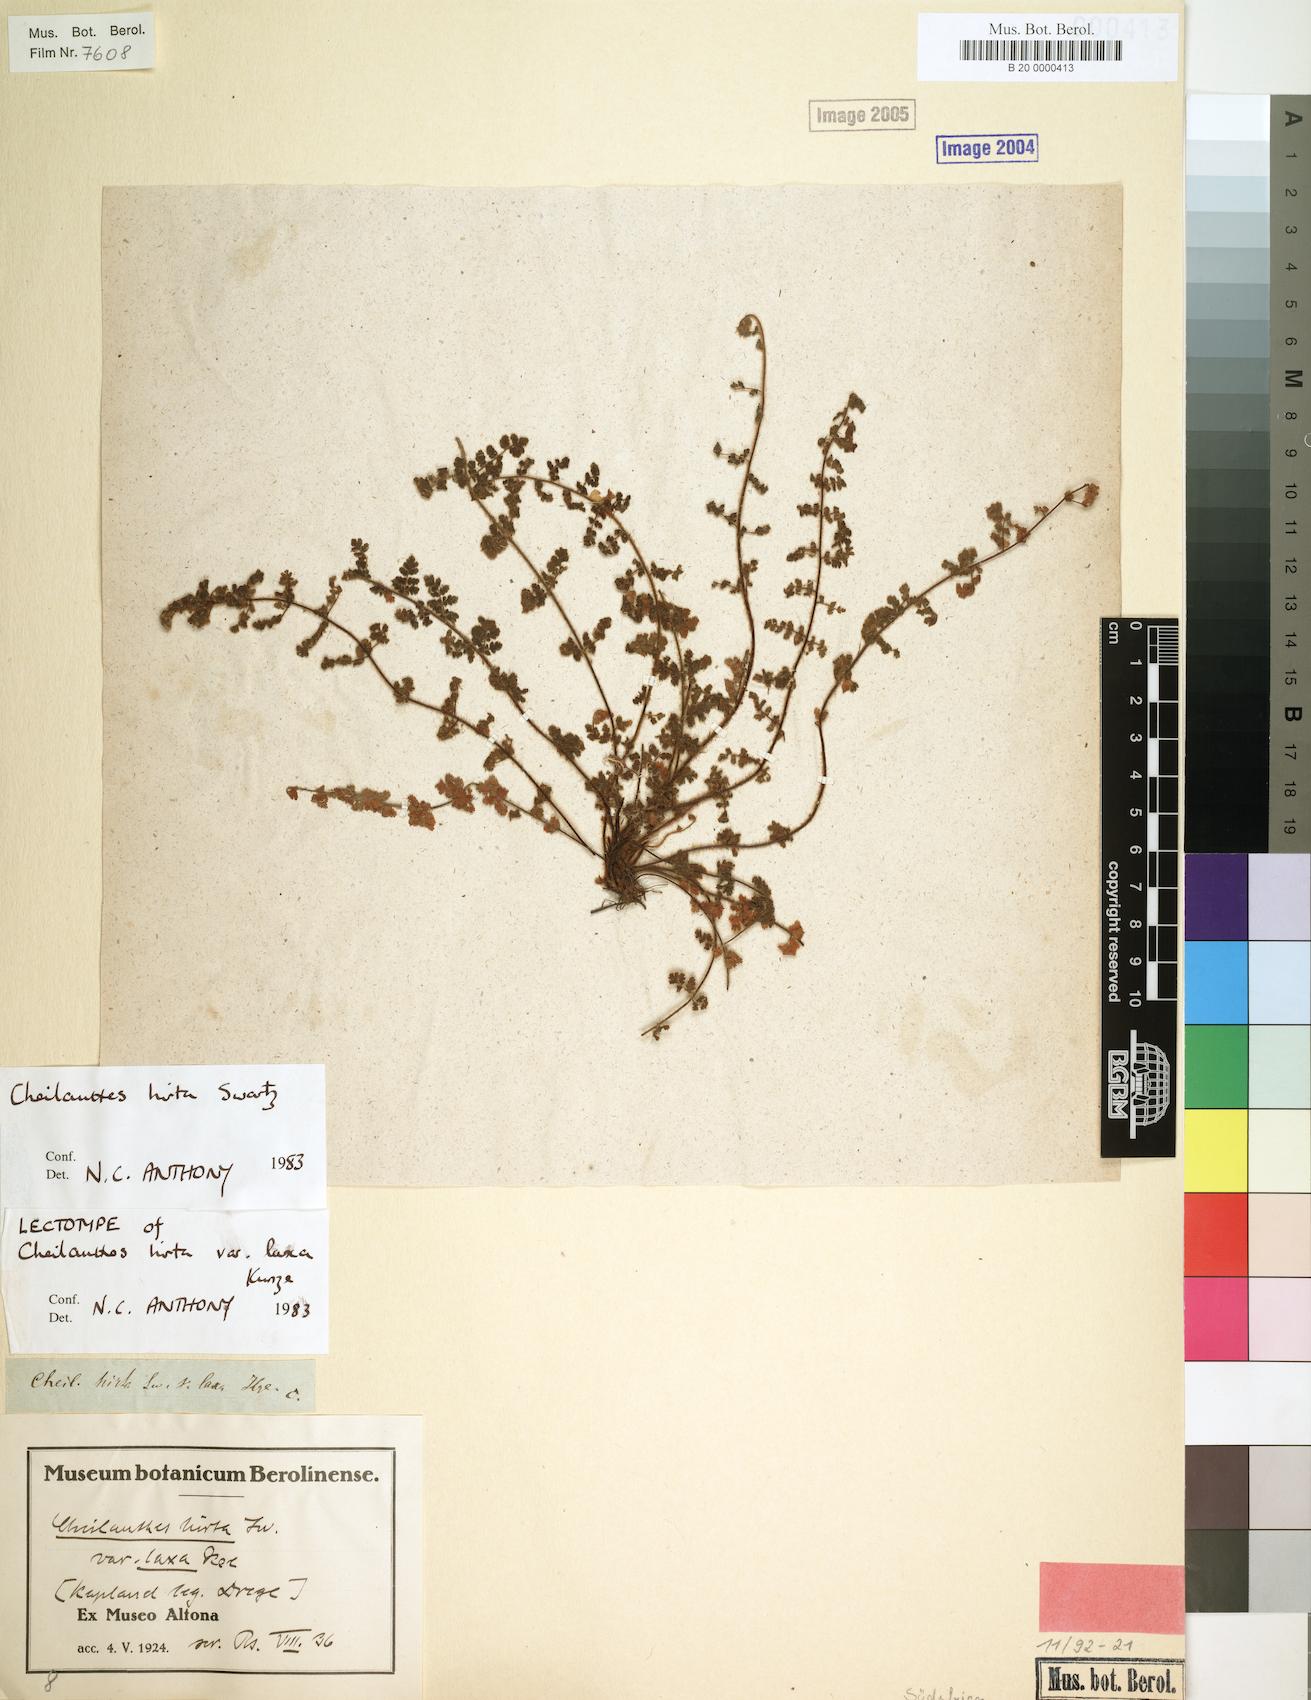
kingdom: Plantae
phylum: Tracheophyta
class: Polypodiopsida
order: Polypodiales
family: Pteridaceae
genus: Cheilanthes
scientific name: Cheilanthes hirta
